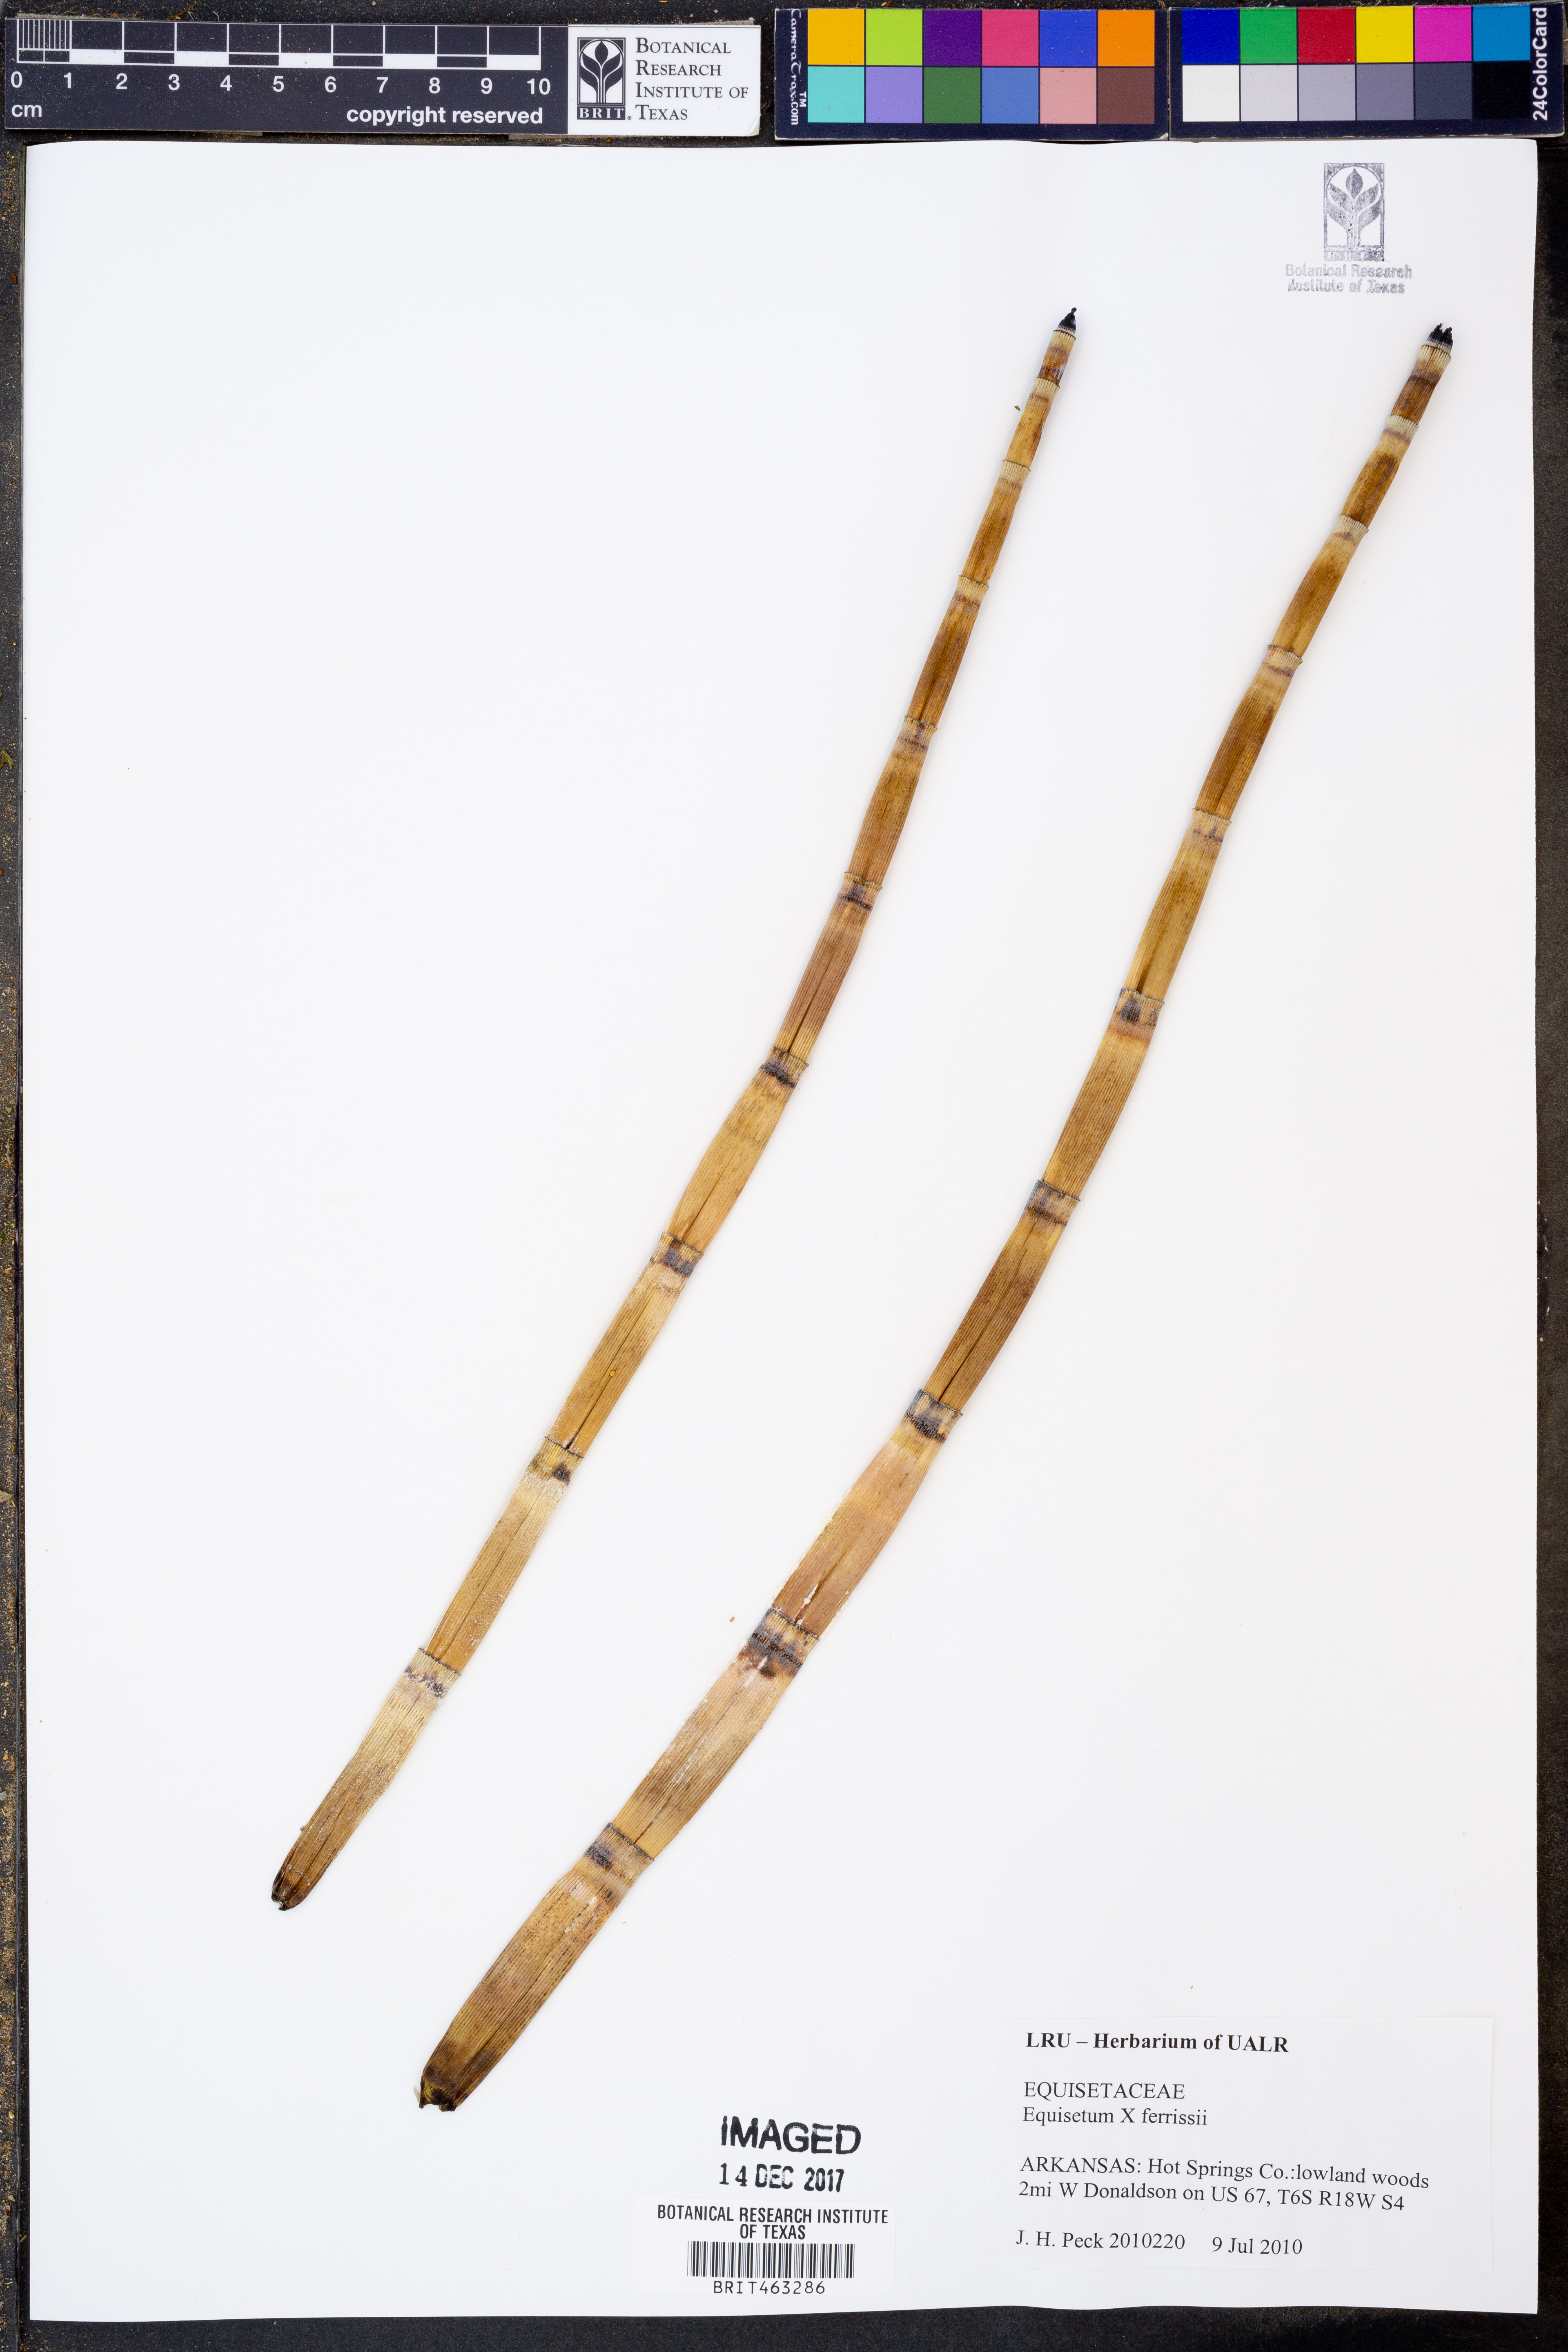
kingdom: Plantae
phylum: Tracheophyta
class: Polypodiopsida
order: Equisetales
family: Equisetaceae
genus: Equisetum
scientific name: Equisetum ferrissii
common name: Ferriss' horsetail
